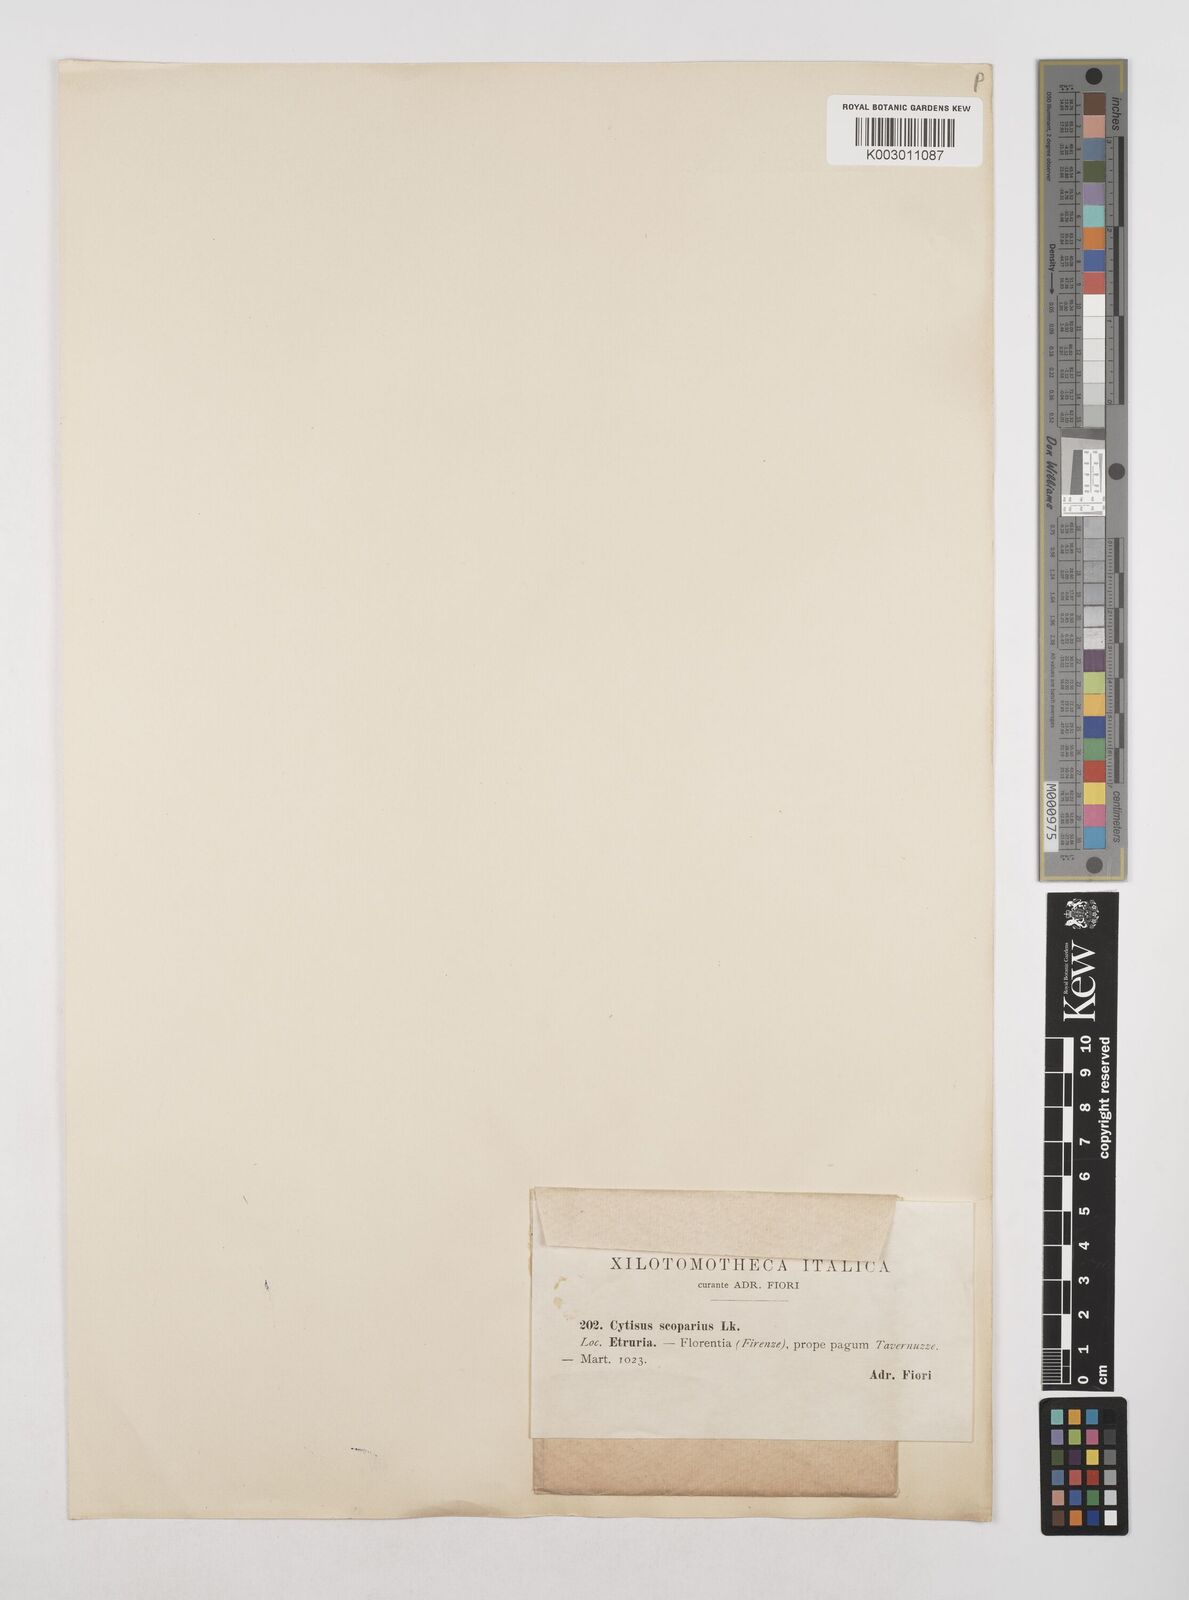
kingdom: Plantae
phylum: Tracheophyta
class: Magnoliopsida
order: Fabales
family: Fabaceae
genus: Cytisus
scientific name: Cytisus scoparius
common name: Scotch broom
